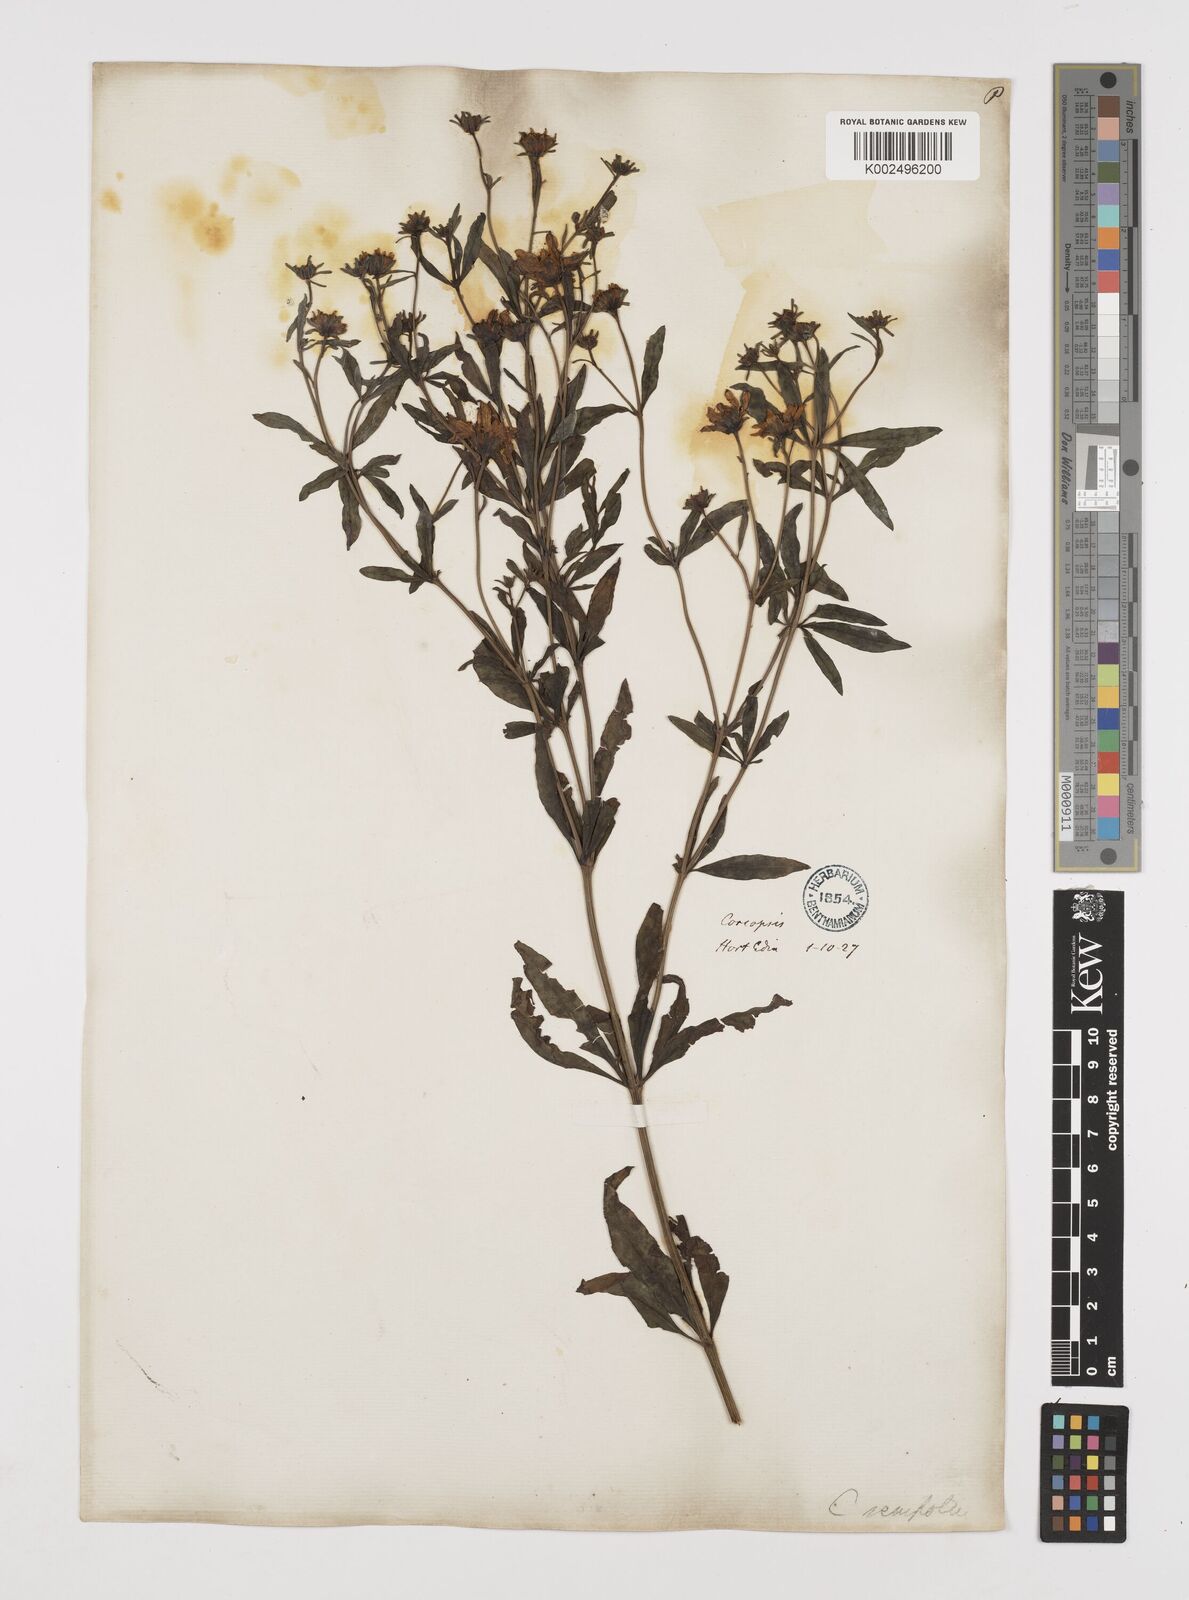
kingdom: Plantae
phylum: Tracheophyta
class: Magnoliopsida
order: Asterales
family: Asteraceae
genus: Coreopsis
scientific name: Coreopsis major
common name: Forest tickseed
